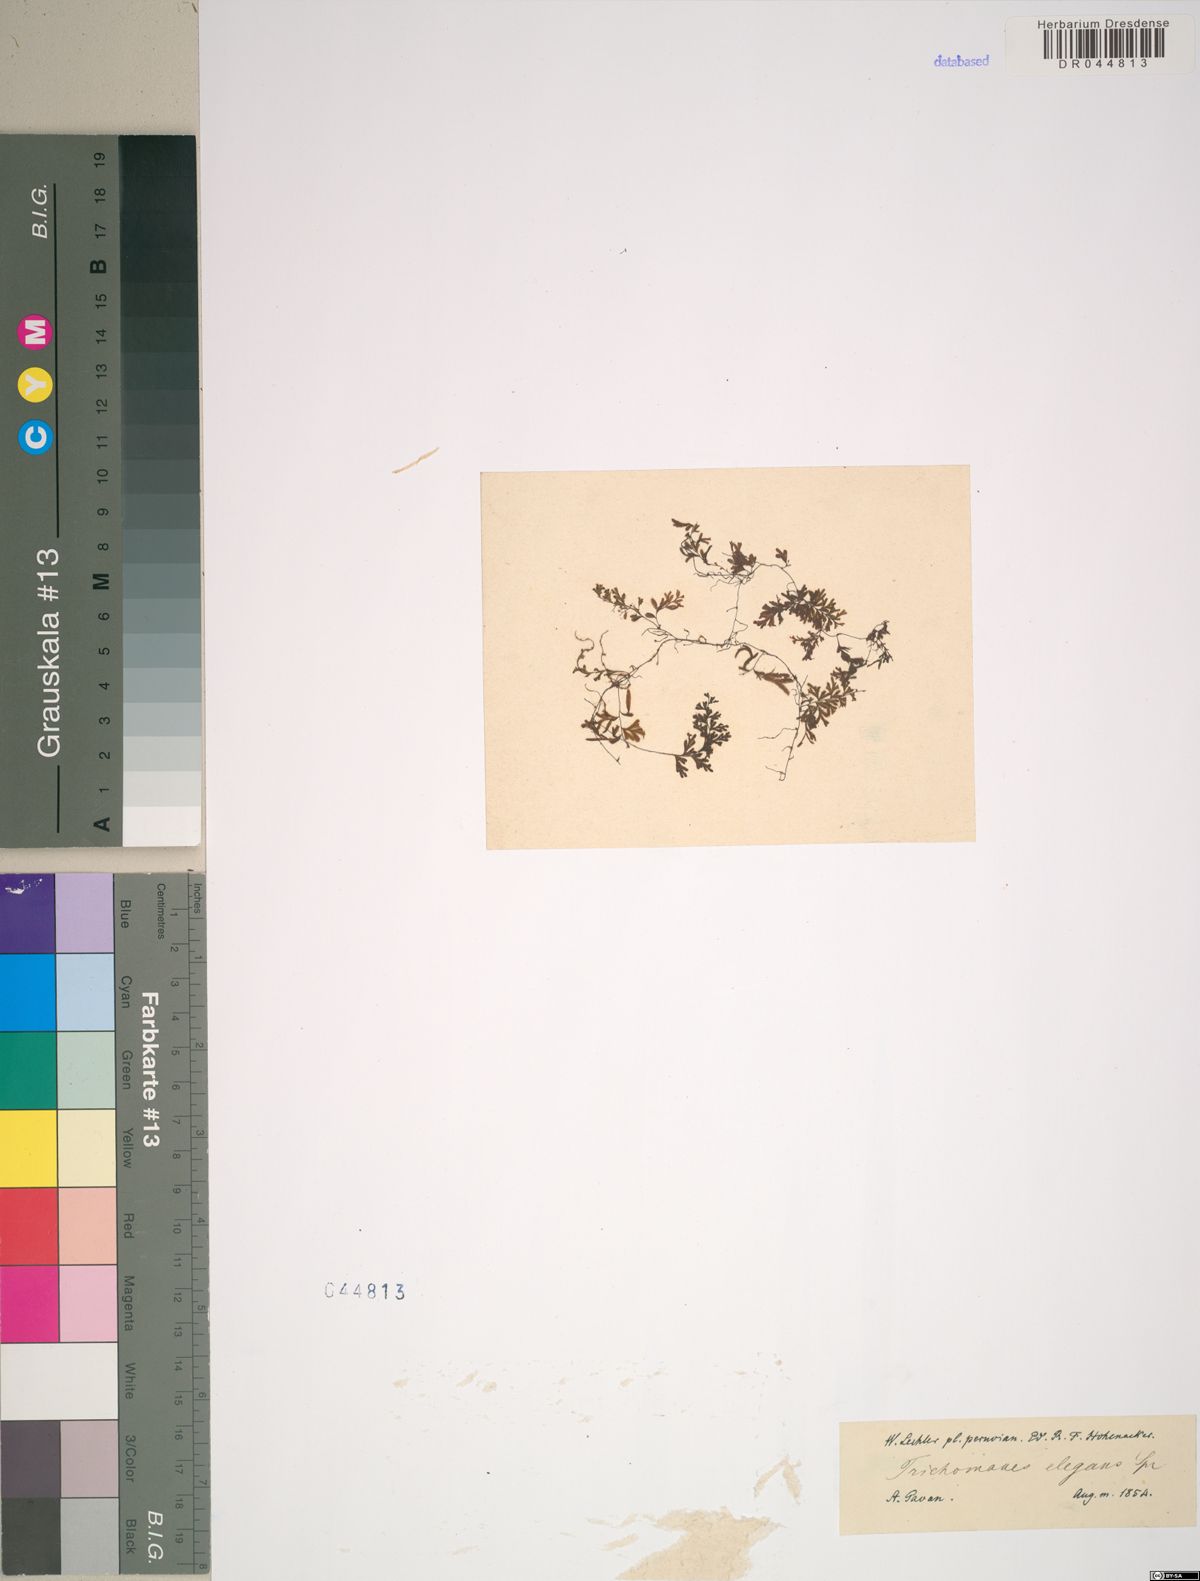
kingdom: Plantae
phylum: Tracheophyta
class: Polypodiopsida
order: Hymenophyllales
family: Hymenophyllaceae
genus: Trichomanes
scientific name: Trichomanes elegans
